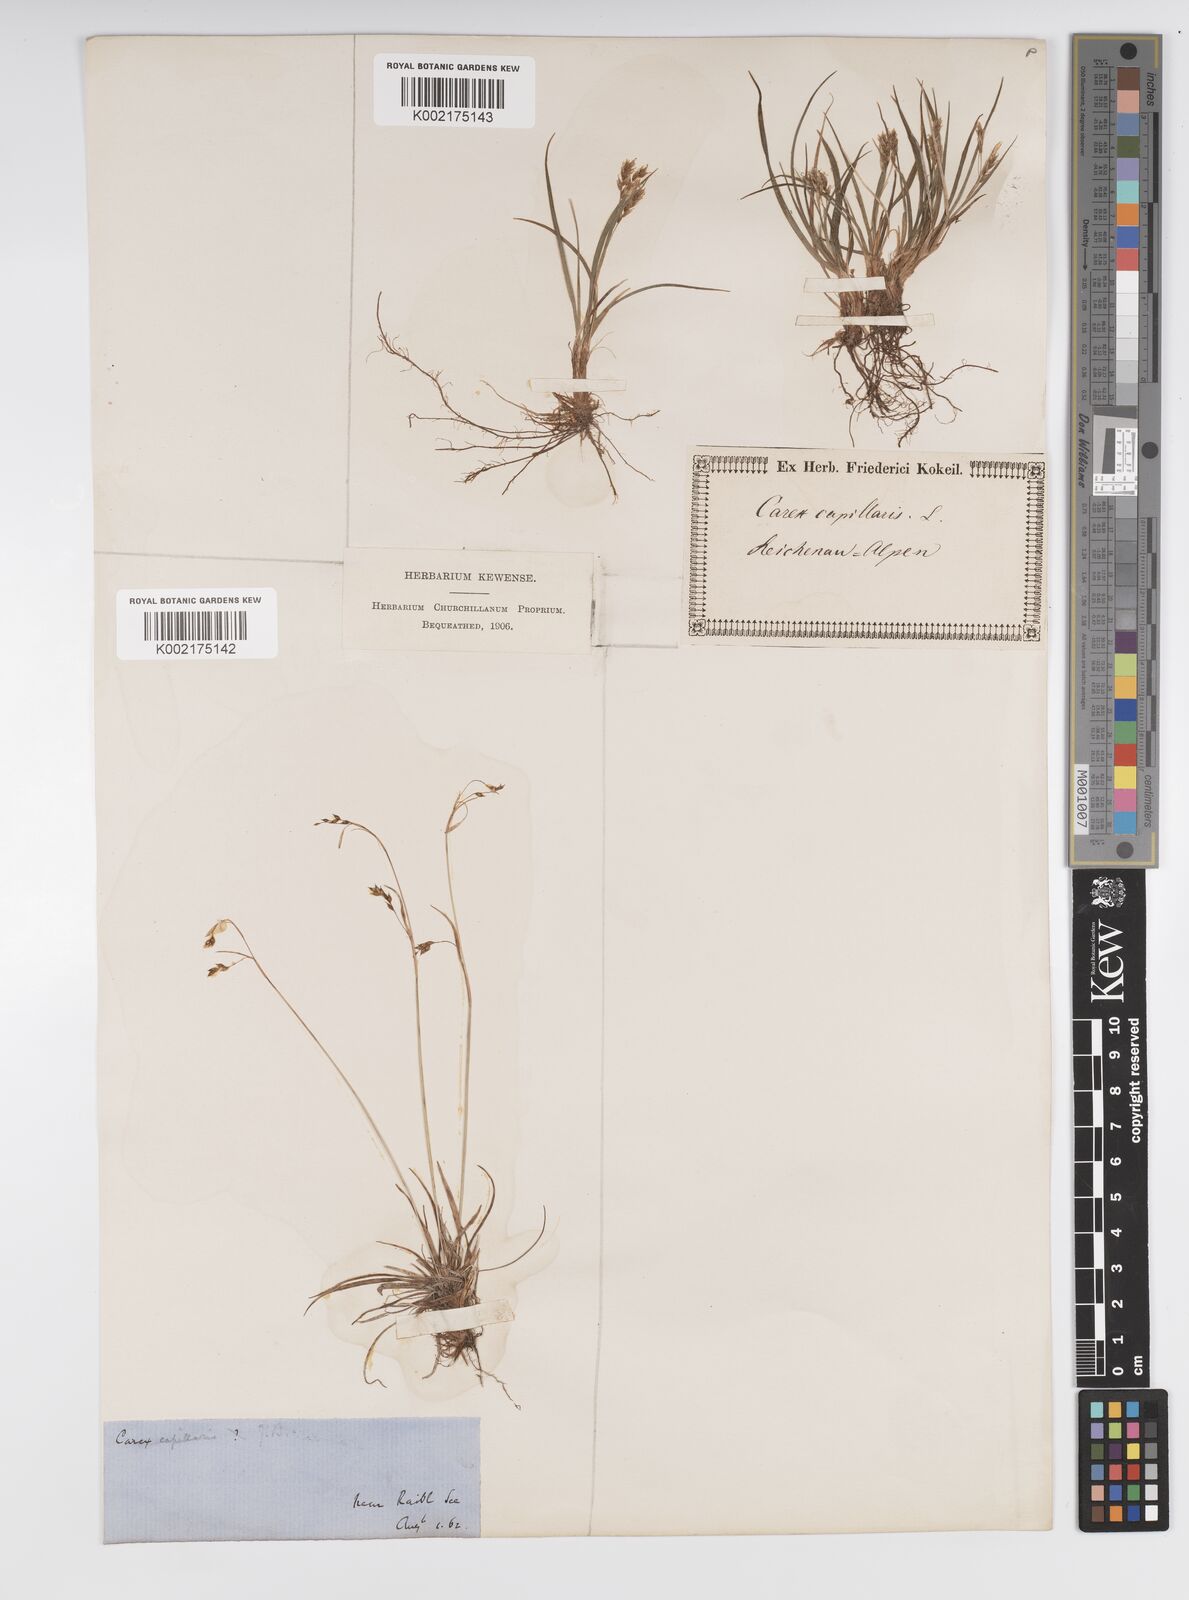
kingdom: Plantae
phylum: Tracheophyta
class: Liliopsida
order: Poales
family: Cyperaceae
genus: Carex
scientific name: Carex capillaris
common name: Hair sedge
